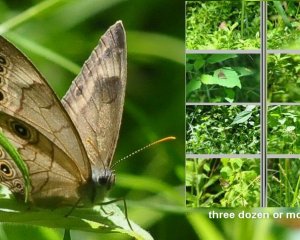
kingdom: Animalia
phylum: Arthropoda
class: Insecta
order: Lepidoptera
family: Nymphalidae
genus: Lethe
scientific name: Lethe eurydice
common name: Appalachian Eyed Brown
